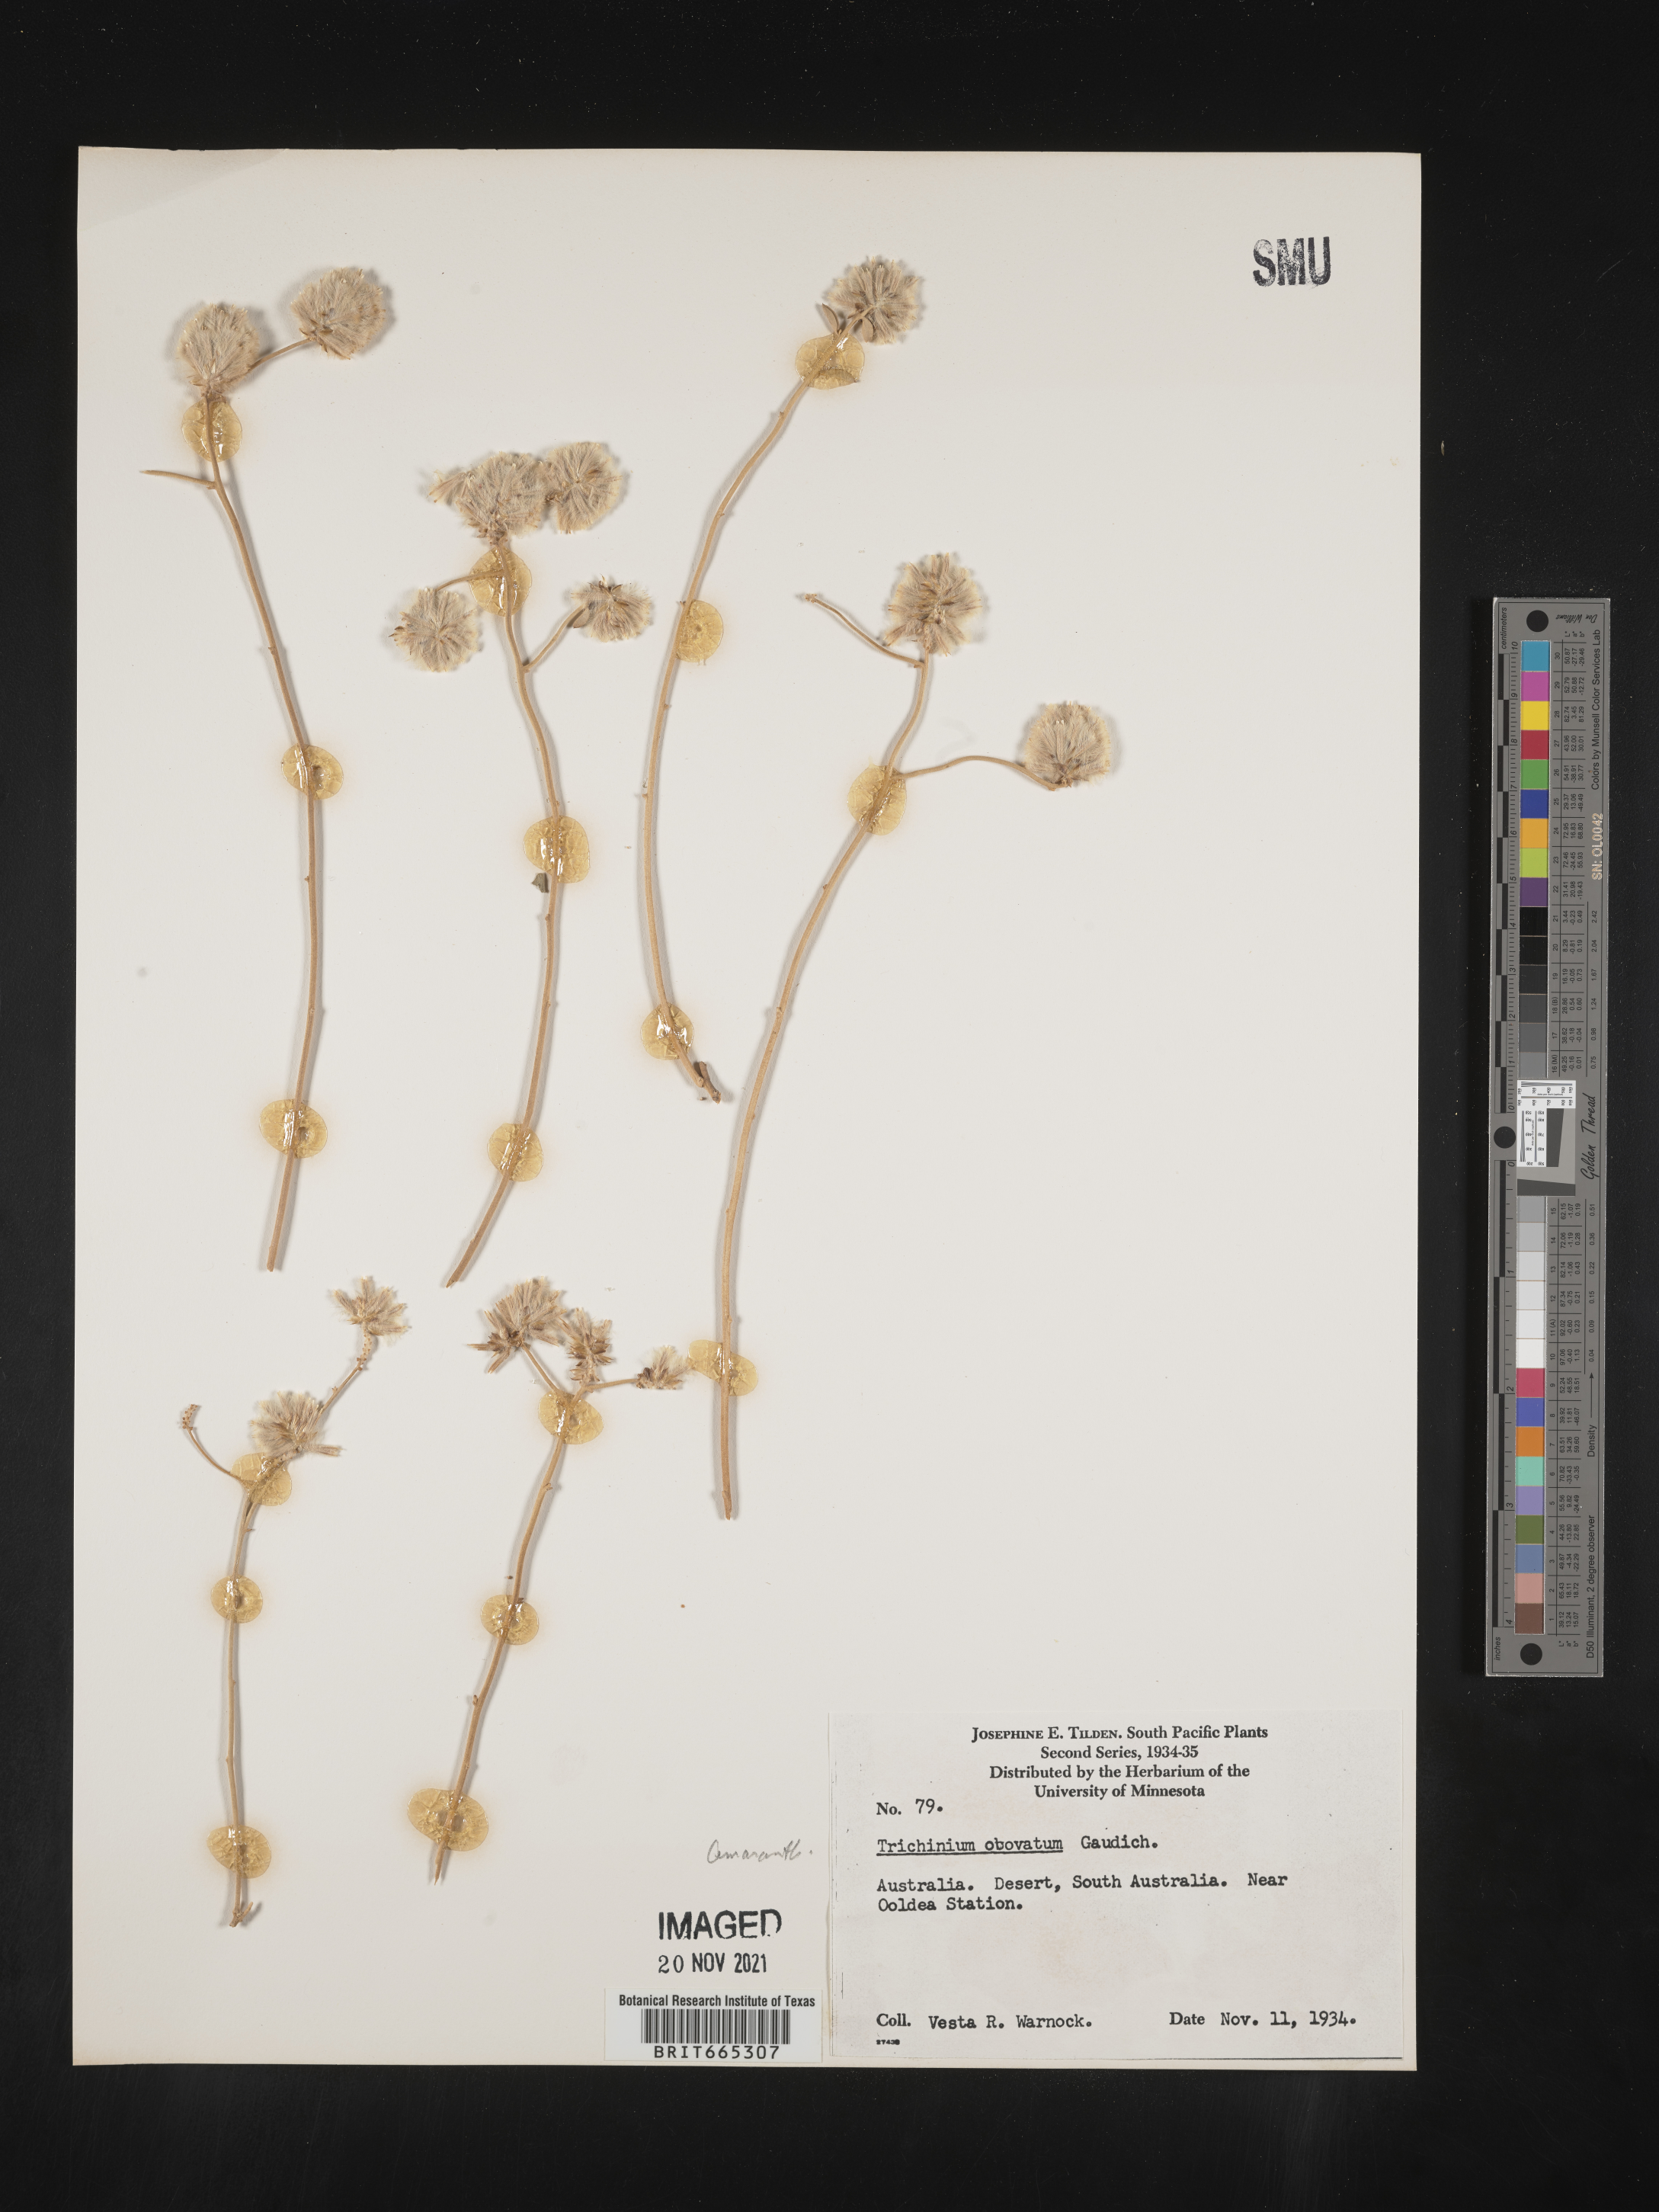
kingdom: Plantae
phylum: Tracheophyta
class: Magnoliopsida
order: Caryophyllales
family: Amaranthaceae
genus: Ptilotus
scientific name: Ptilotus
